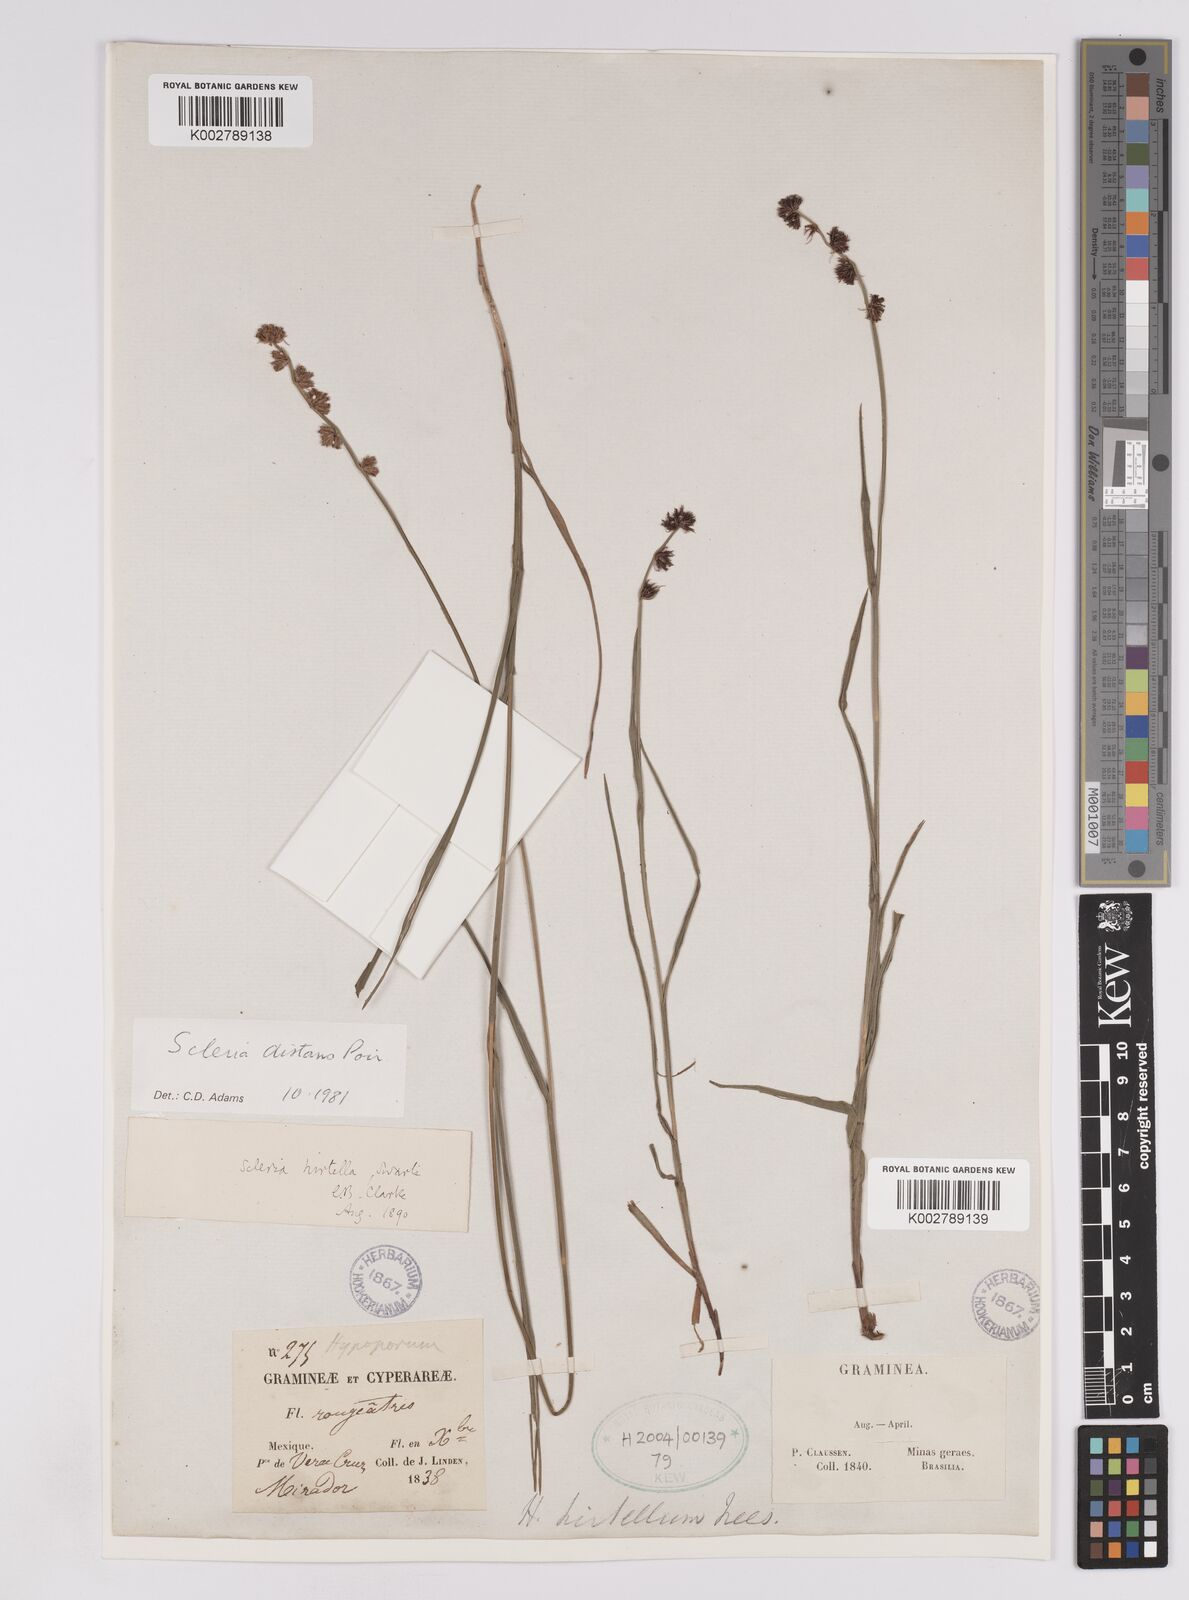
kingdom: Plantae
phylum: Tracheophyta
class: Liliopsida
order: Poales
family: Cyperaceae
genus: Scleria
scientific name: Scleria distans
